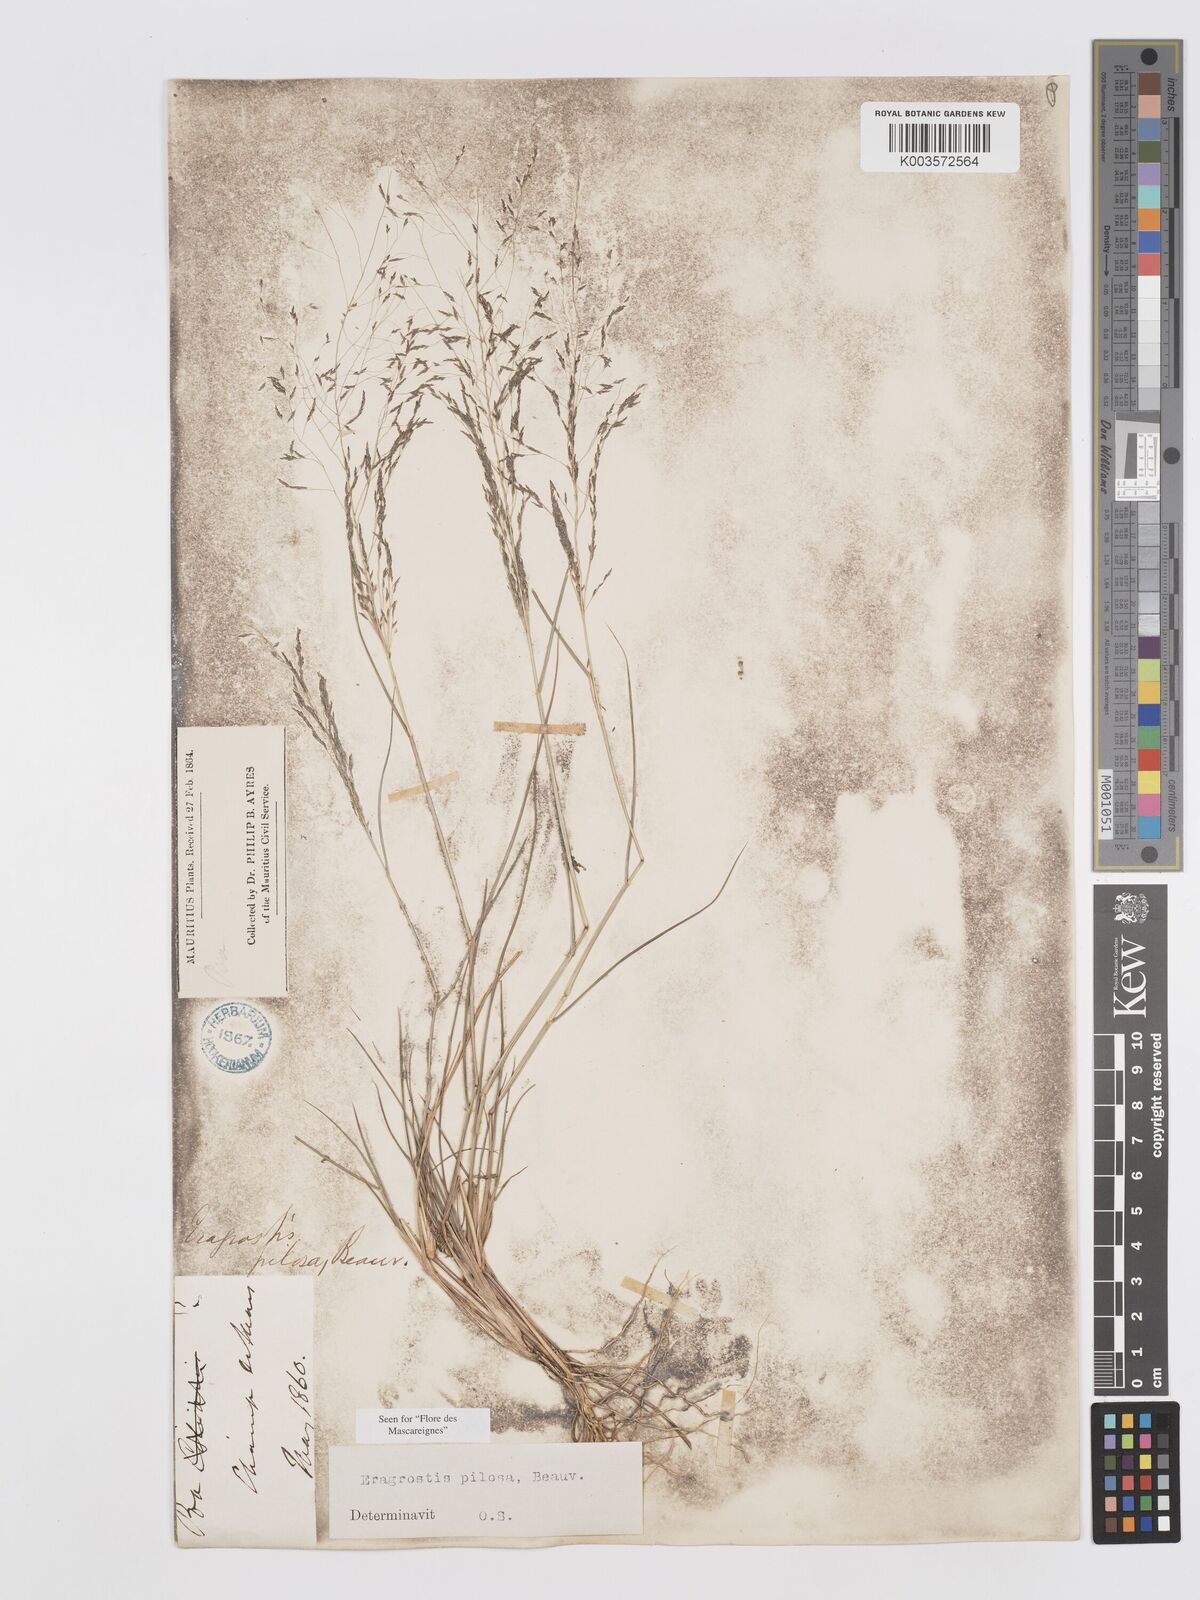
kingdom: Plantae
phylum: Tracheophyta
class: Liliopsida
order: Poales
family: Poaceae
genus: Eragrostis
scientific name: Eragrostis pilosa
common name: Indian lovegrass
